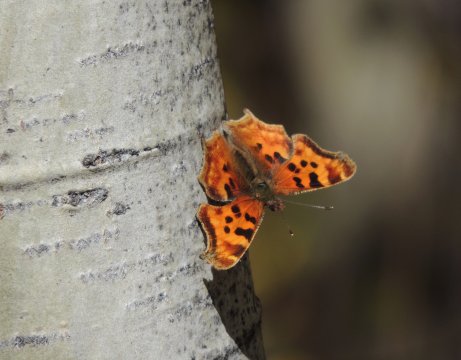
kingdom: Animalia
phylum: Arthropoda
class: Insecta
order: Lepidoptera
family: Nymphalidae
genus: Polygonia
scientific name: Polygonia satyrus
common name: Satyr Comma
